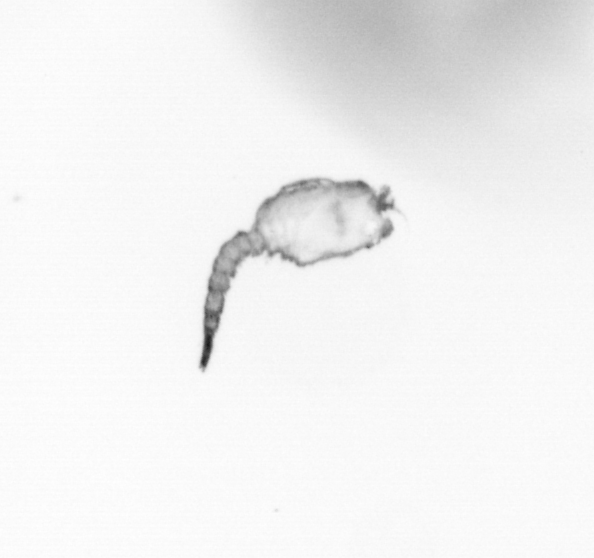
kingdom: Animalia
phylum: Arthropoda
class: Copepoda
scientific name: Copepoda
